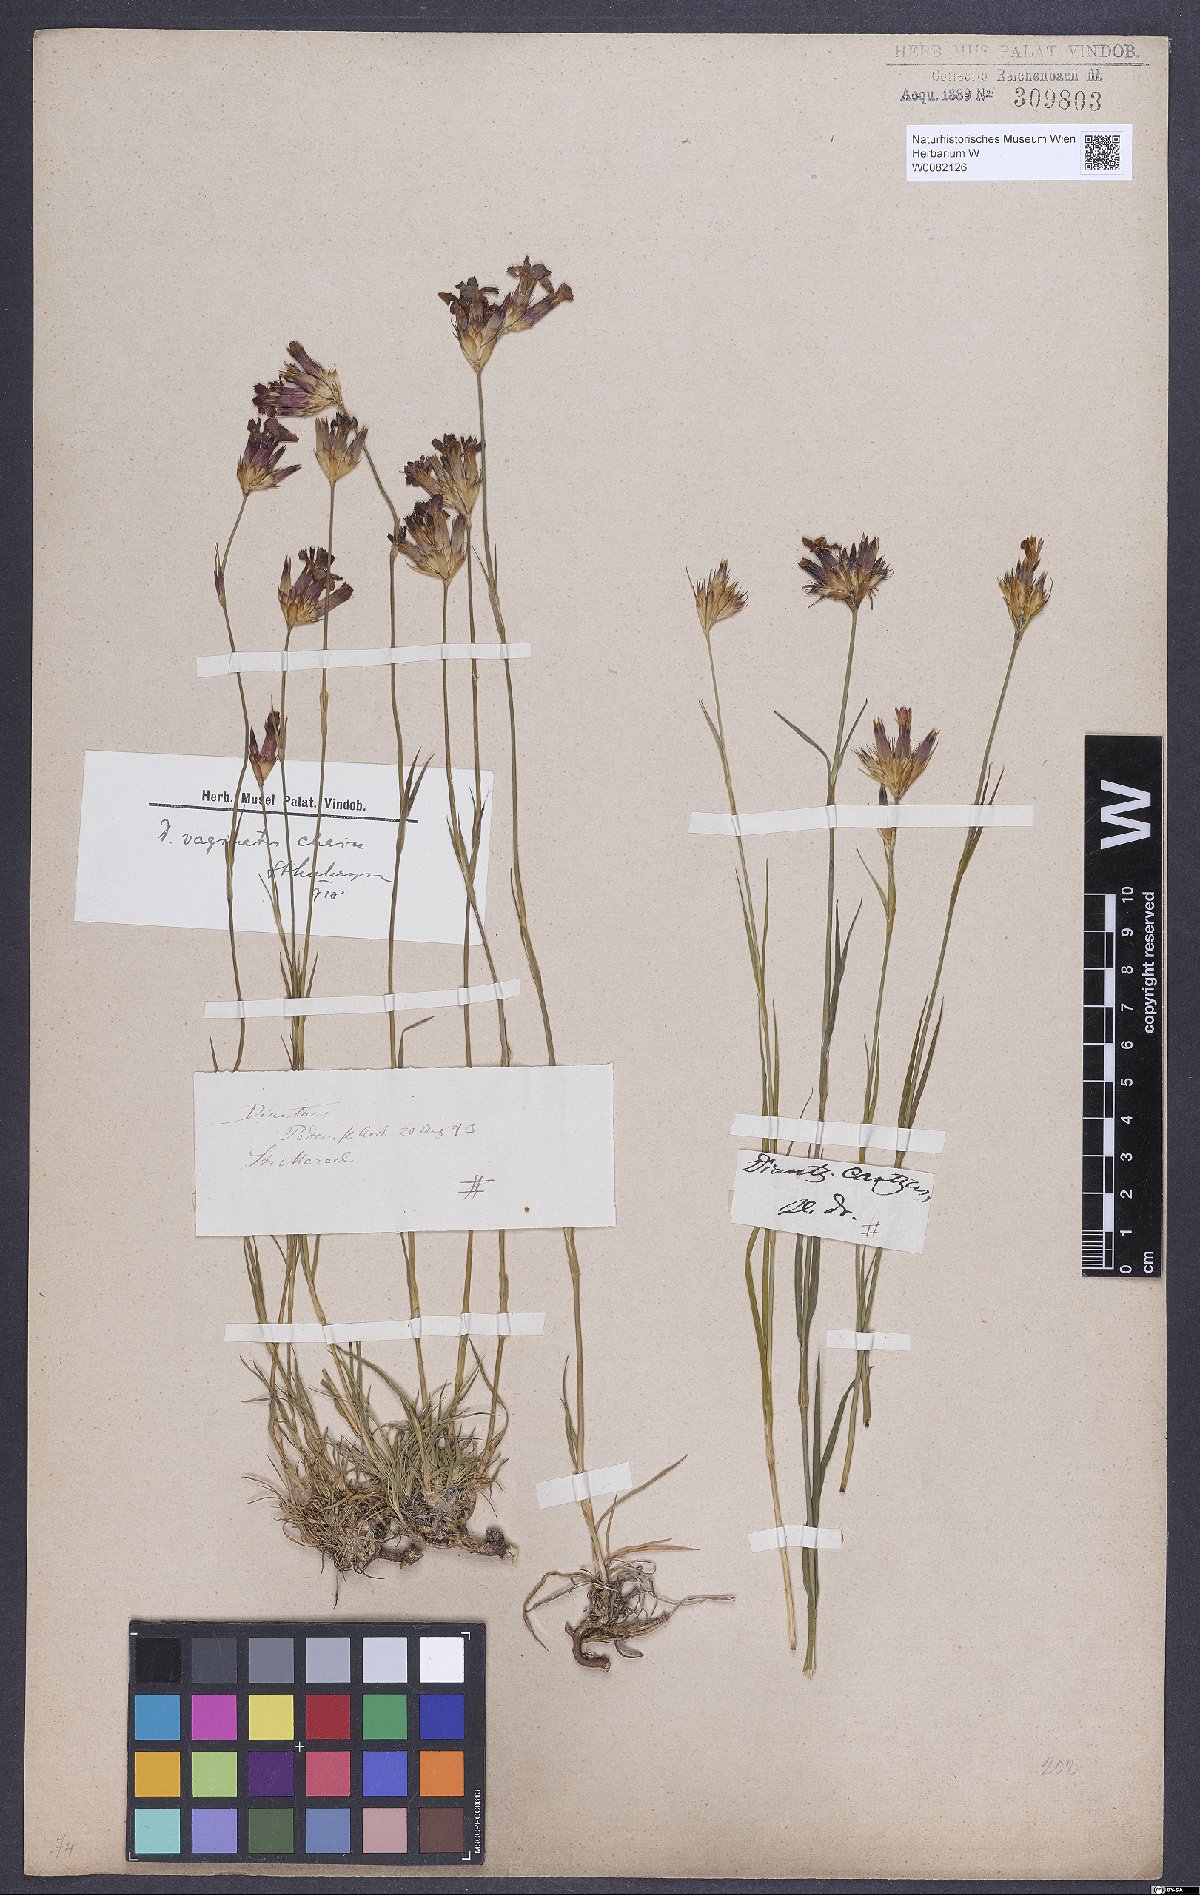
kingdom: Plantae
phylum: Tracheophyta
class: Magnoliopsida
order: Caryophyllales
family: Caryophyllaceae
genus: Dianthus
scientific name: Dianthus carthusianorum
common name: Carthusian pink
